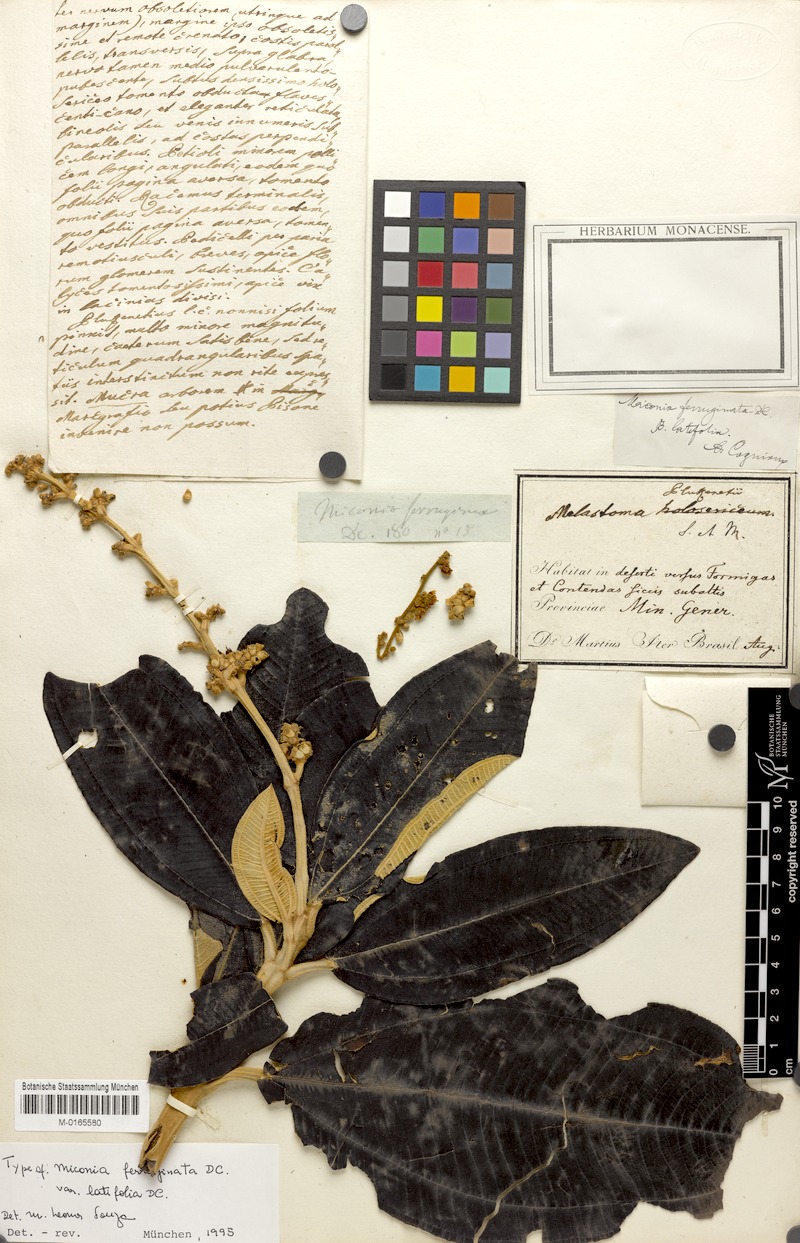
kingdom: Plantae
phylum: Tracheophyta
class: Magnoliopsida
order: Myrtales
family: Melastomataceae
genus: Miconia
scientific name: Miconia ferruginata
